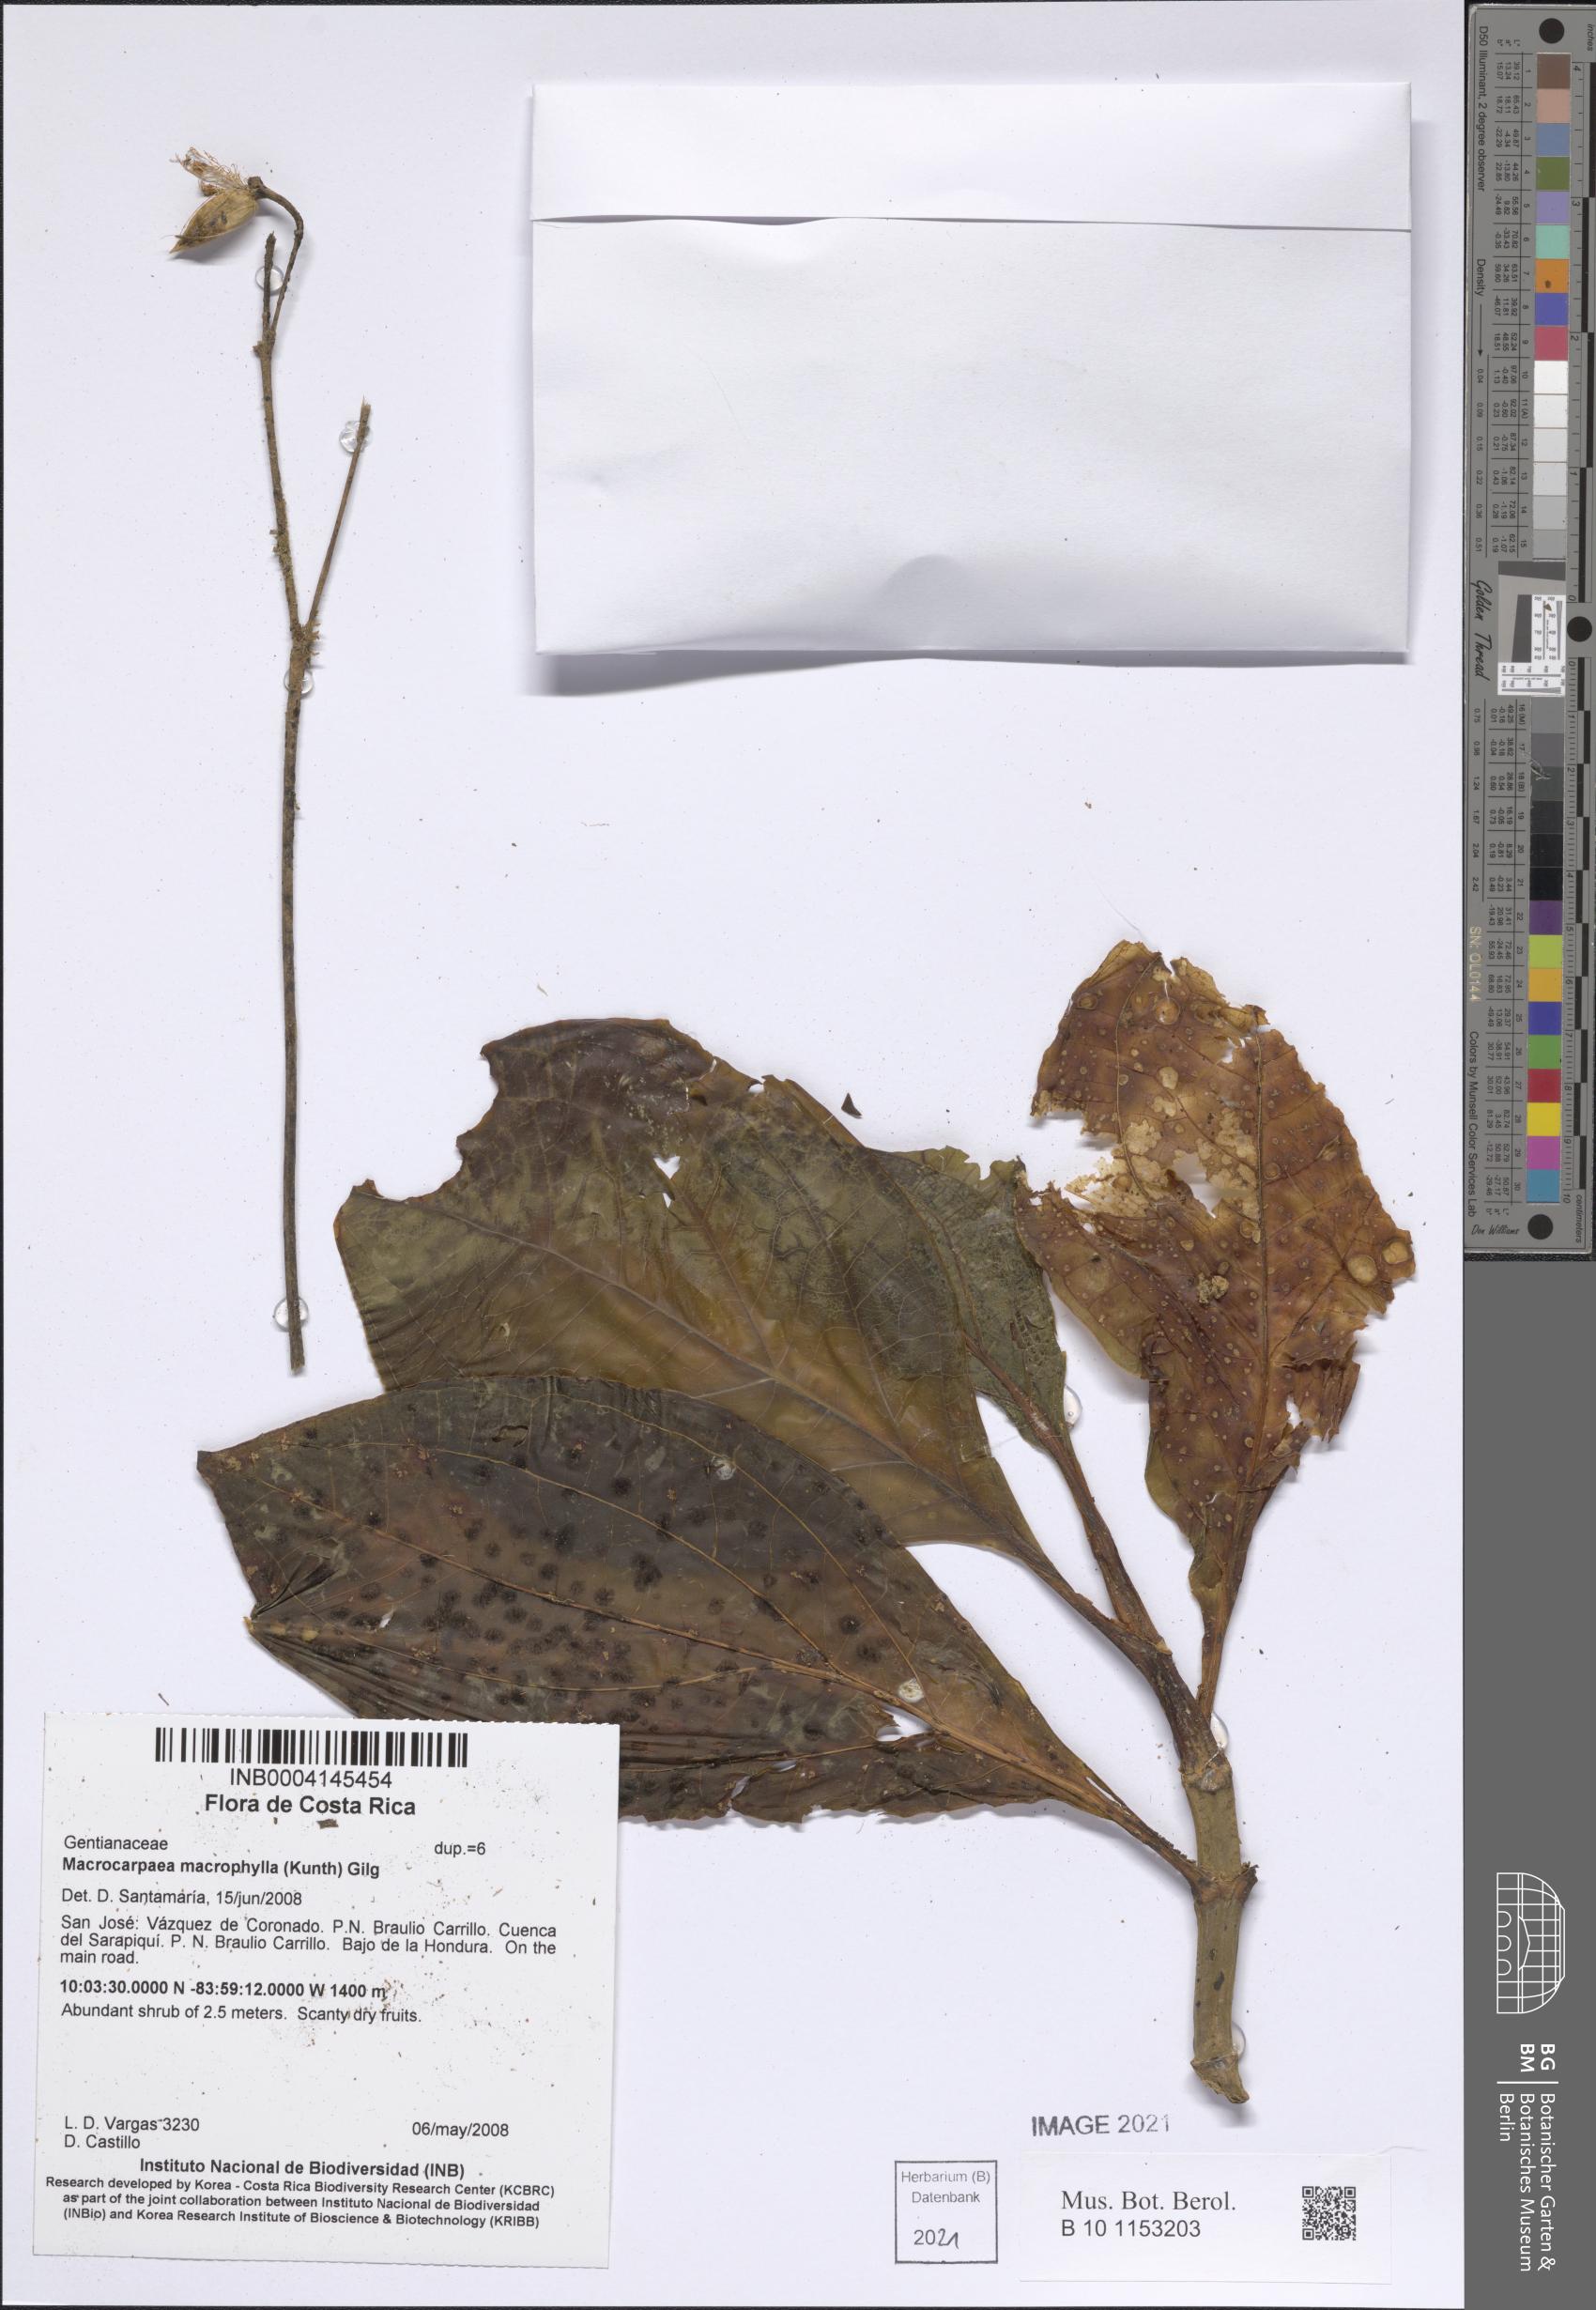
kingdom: Plantae
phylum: Tracheophyta
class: Magnoliopsida
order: Gentianales
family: Gentianaceae
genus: Macrocarpaea
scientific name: Macrocarpaea valerioi
